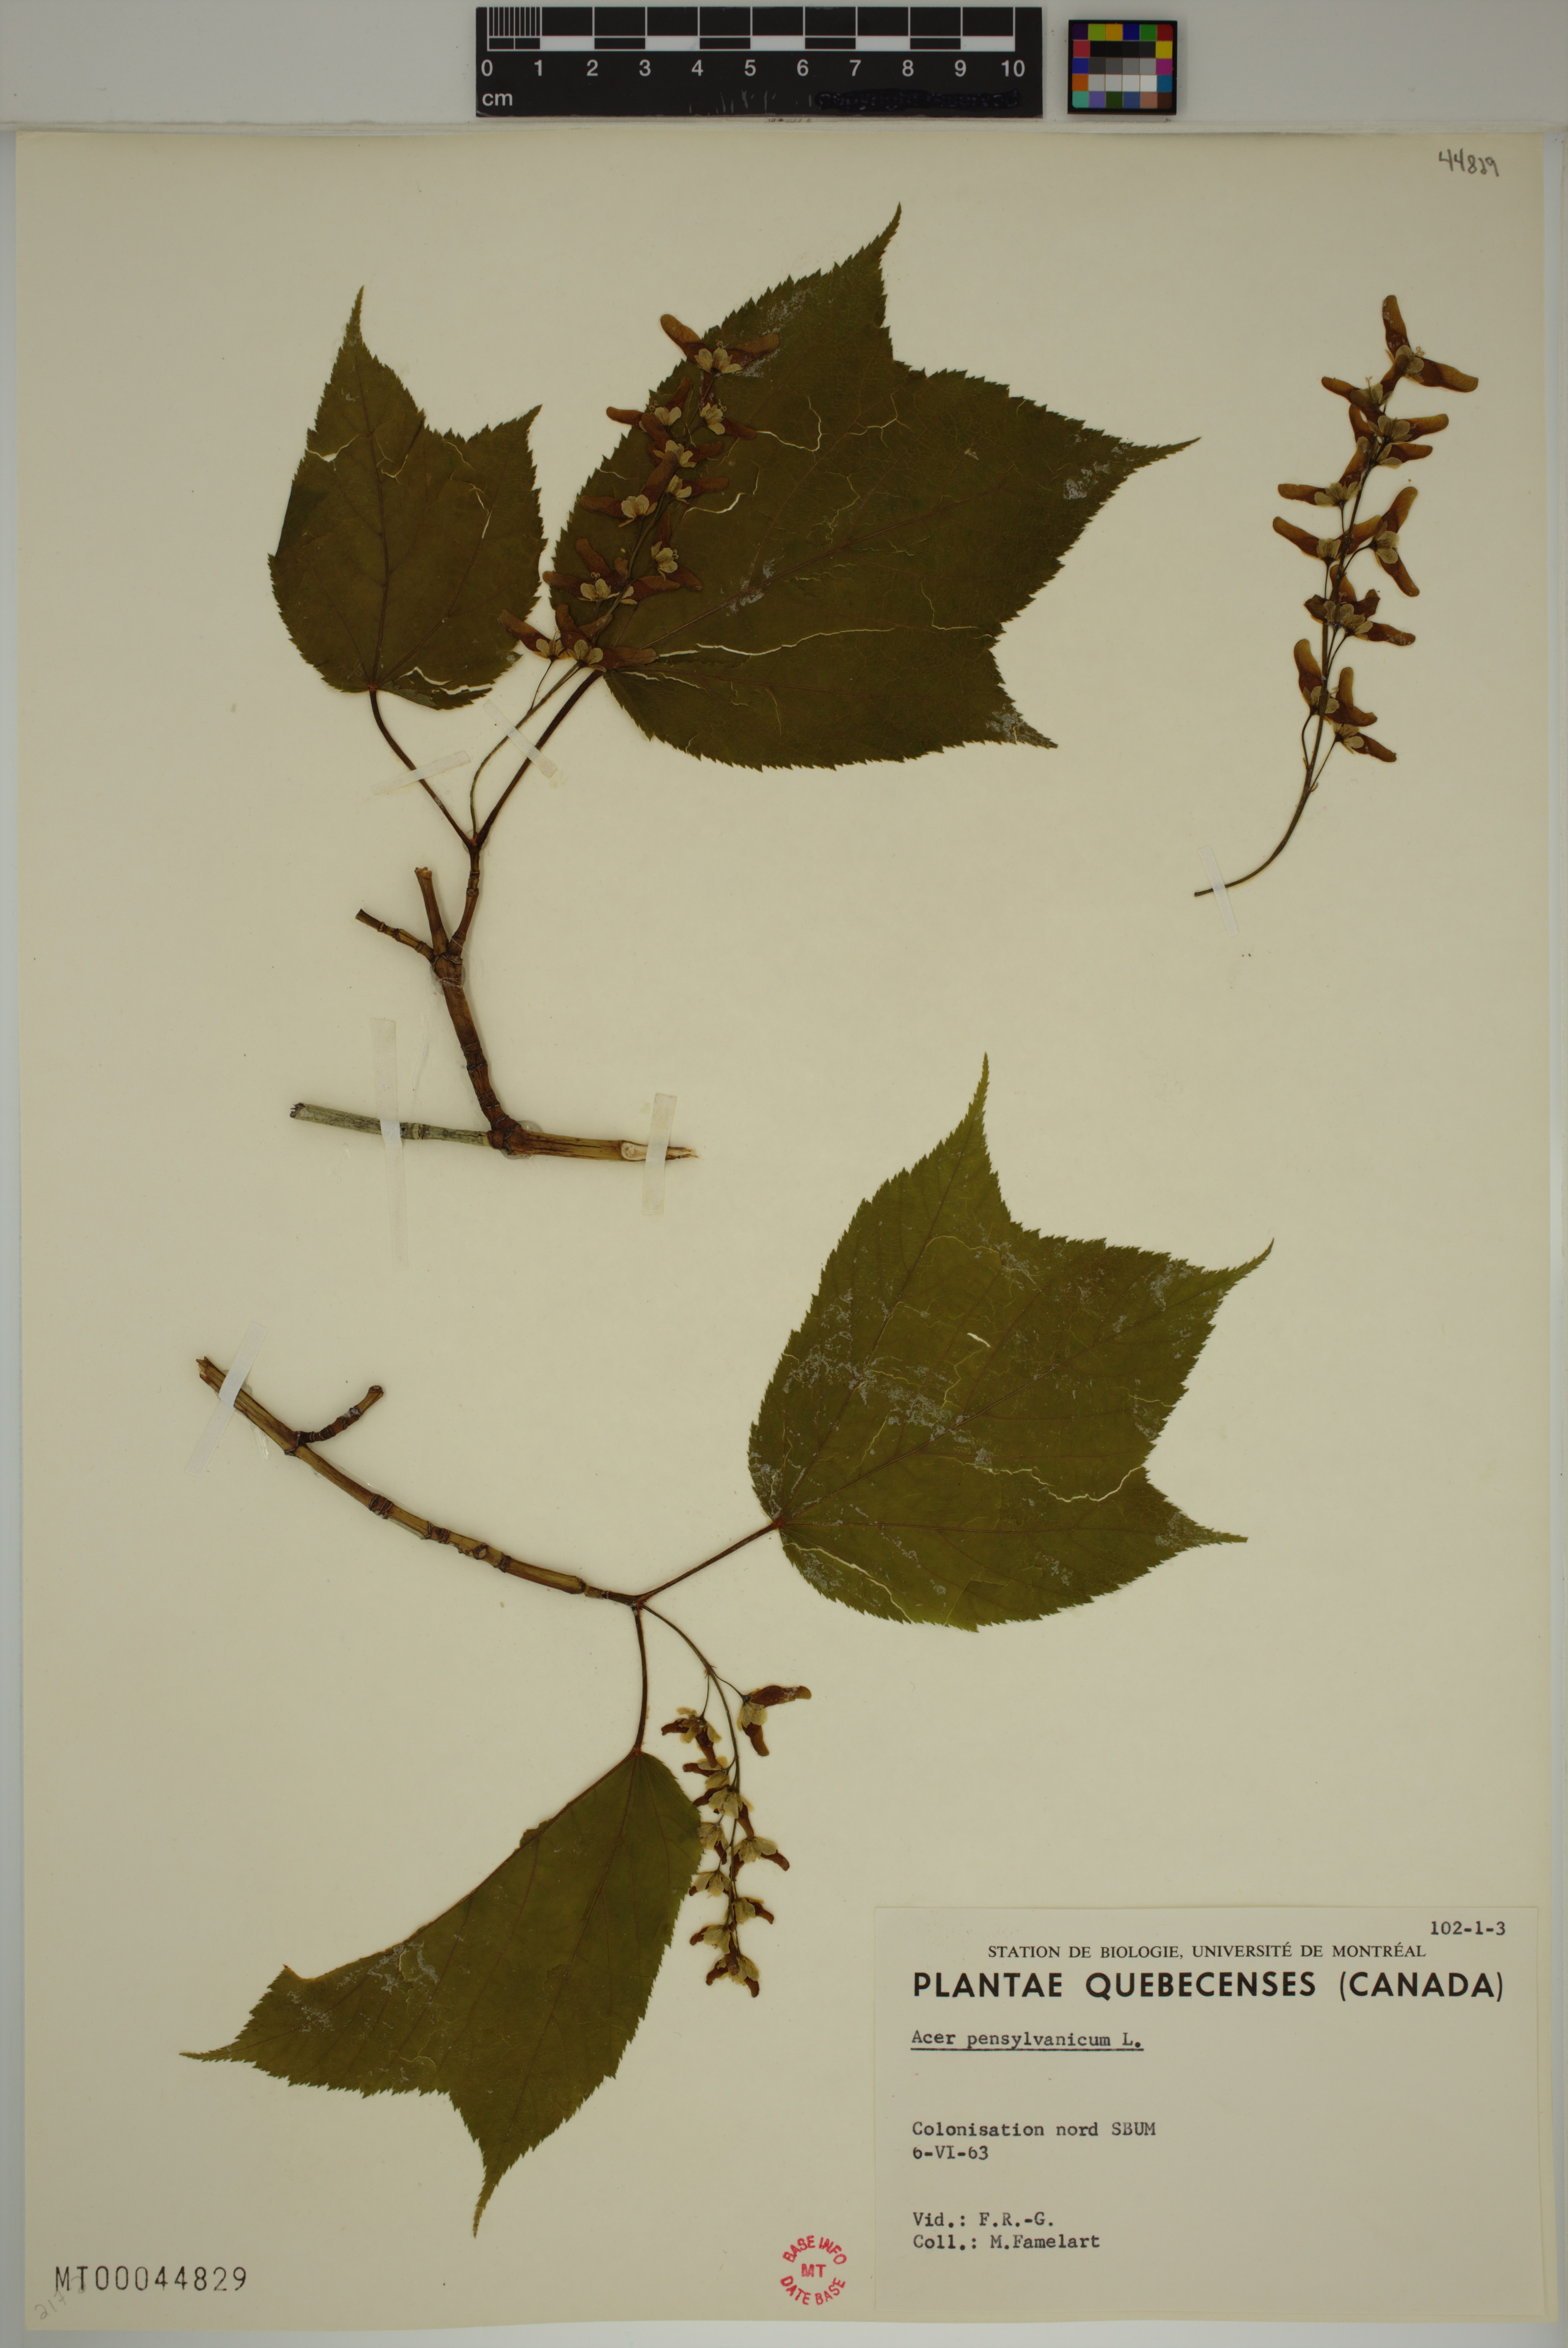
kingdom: Plantae
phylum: Tracheophyta
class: Magnoliopsida
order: Sapindales
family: Sapindaceae
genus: Acer
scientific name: Acer pensylvanicum
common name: Moosewood
